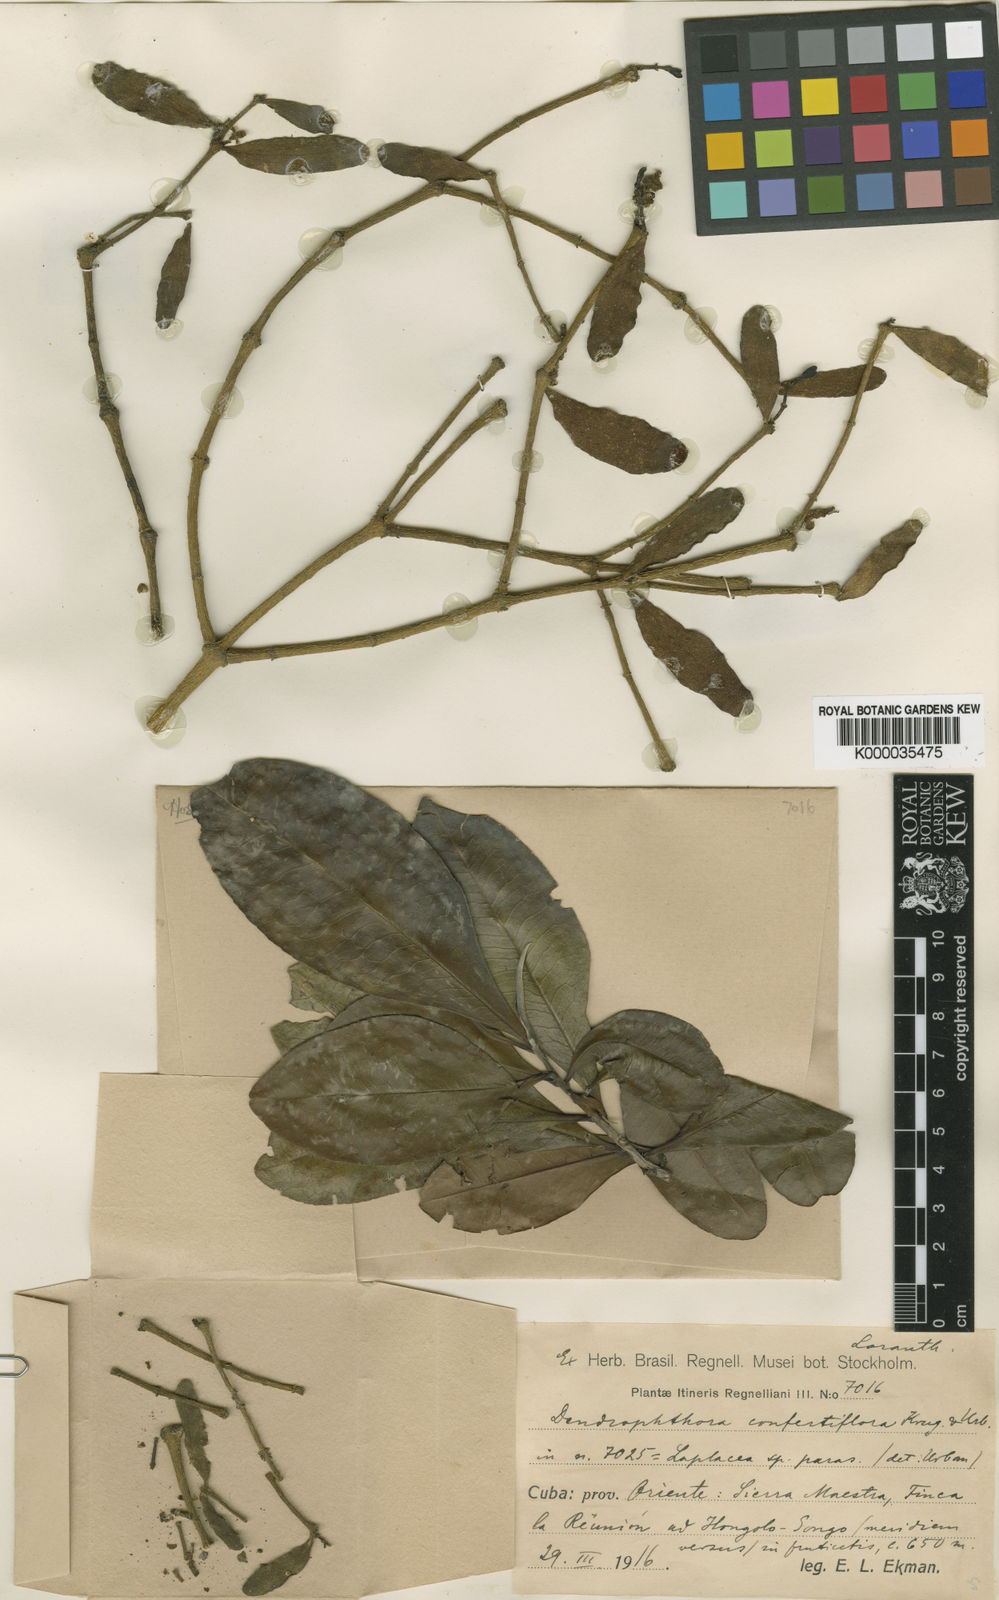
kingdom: Plantae
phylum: Tracheophyta
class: Magnoliopsida
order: Santalales
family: Viscaceae
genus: Dendrophthora
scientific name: Dendrophthora confertiflora
